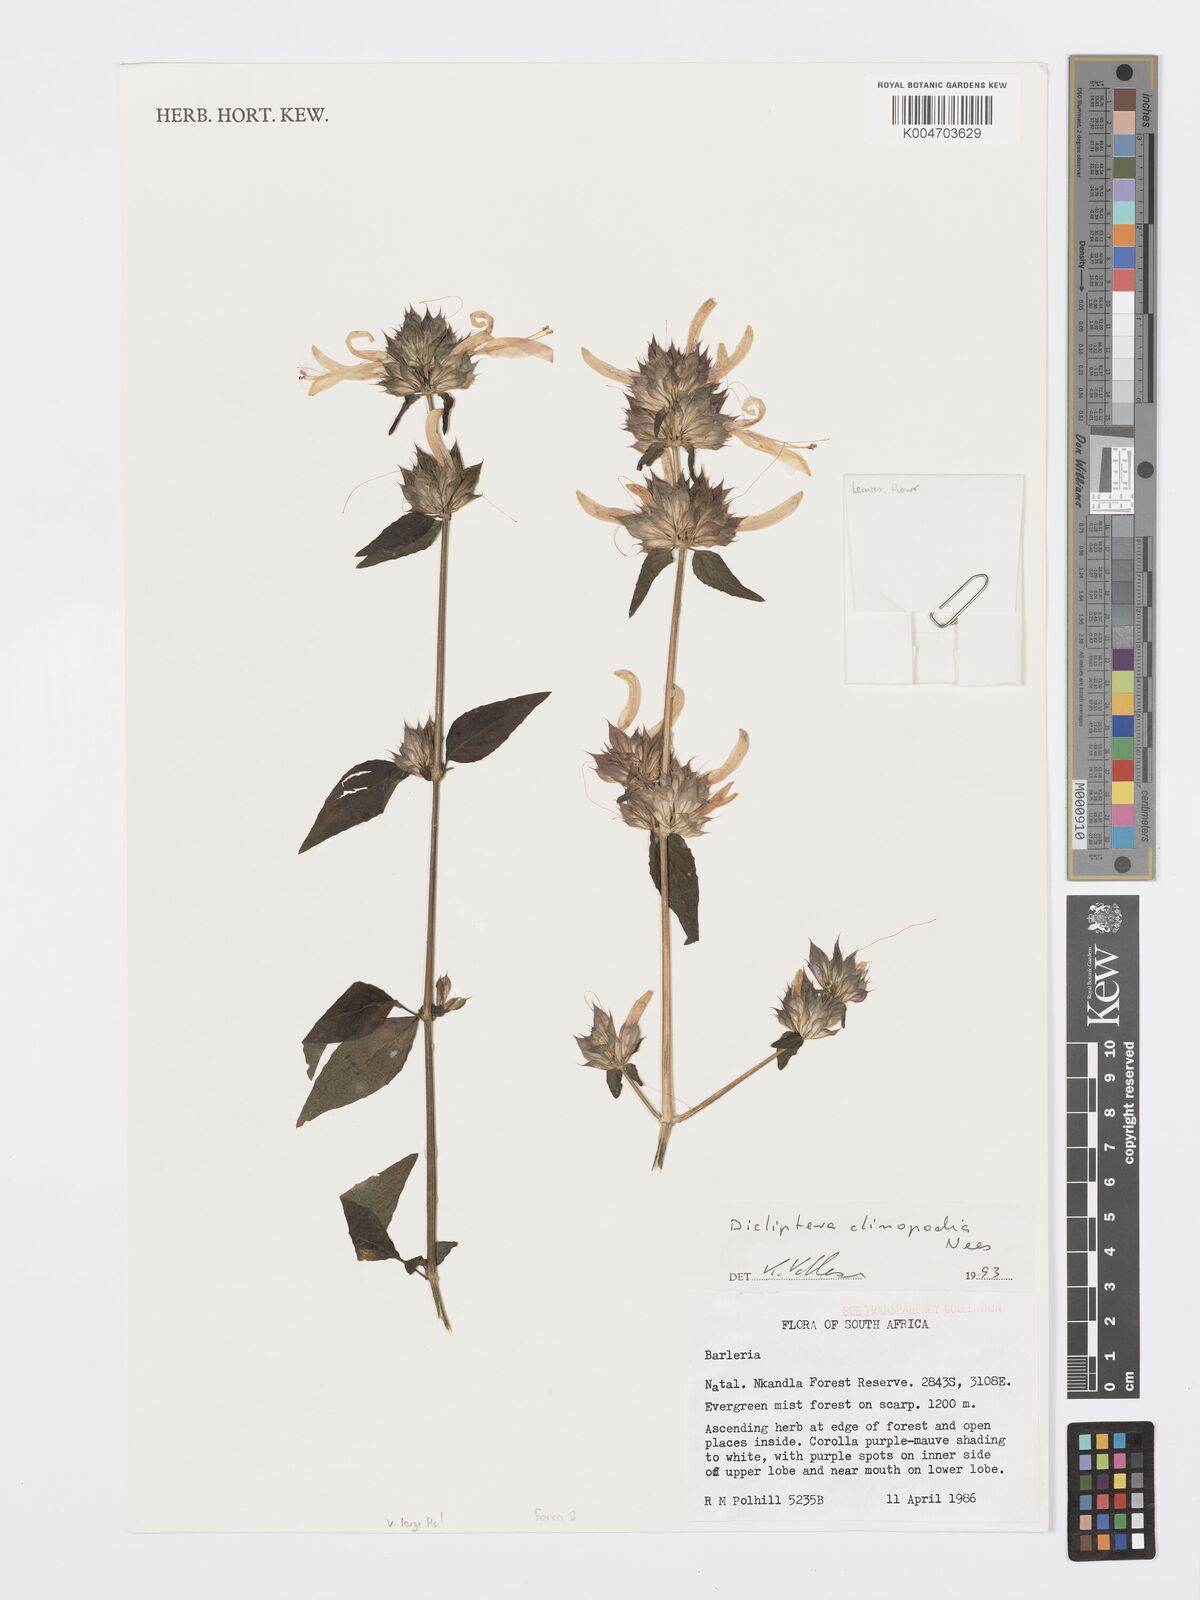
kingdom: Plantae
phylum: Tracheophyta
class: Magnoliopsida
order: Lamiales
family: Acanthaceae
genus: Dicliptera
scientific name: Dicliptera clinopodia
